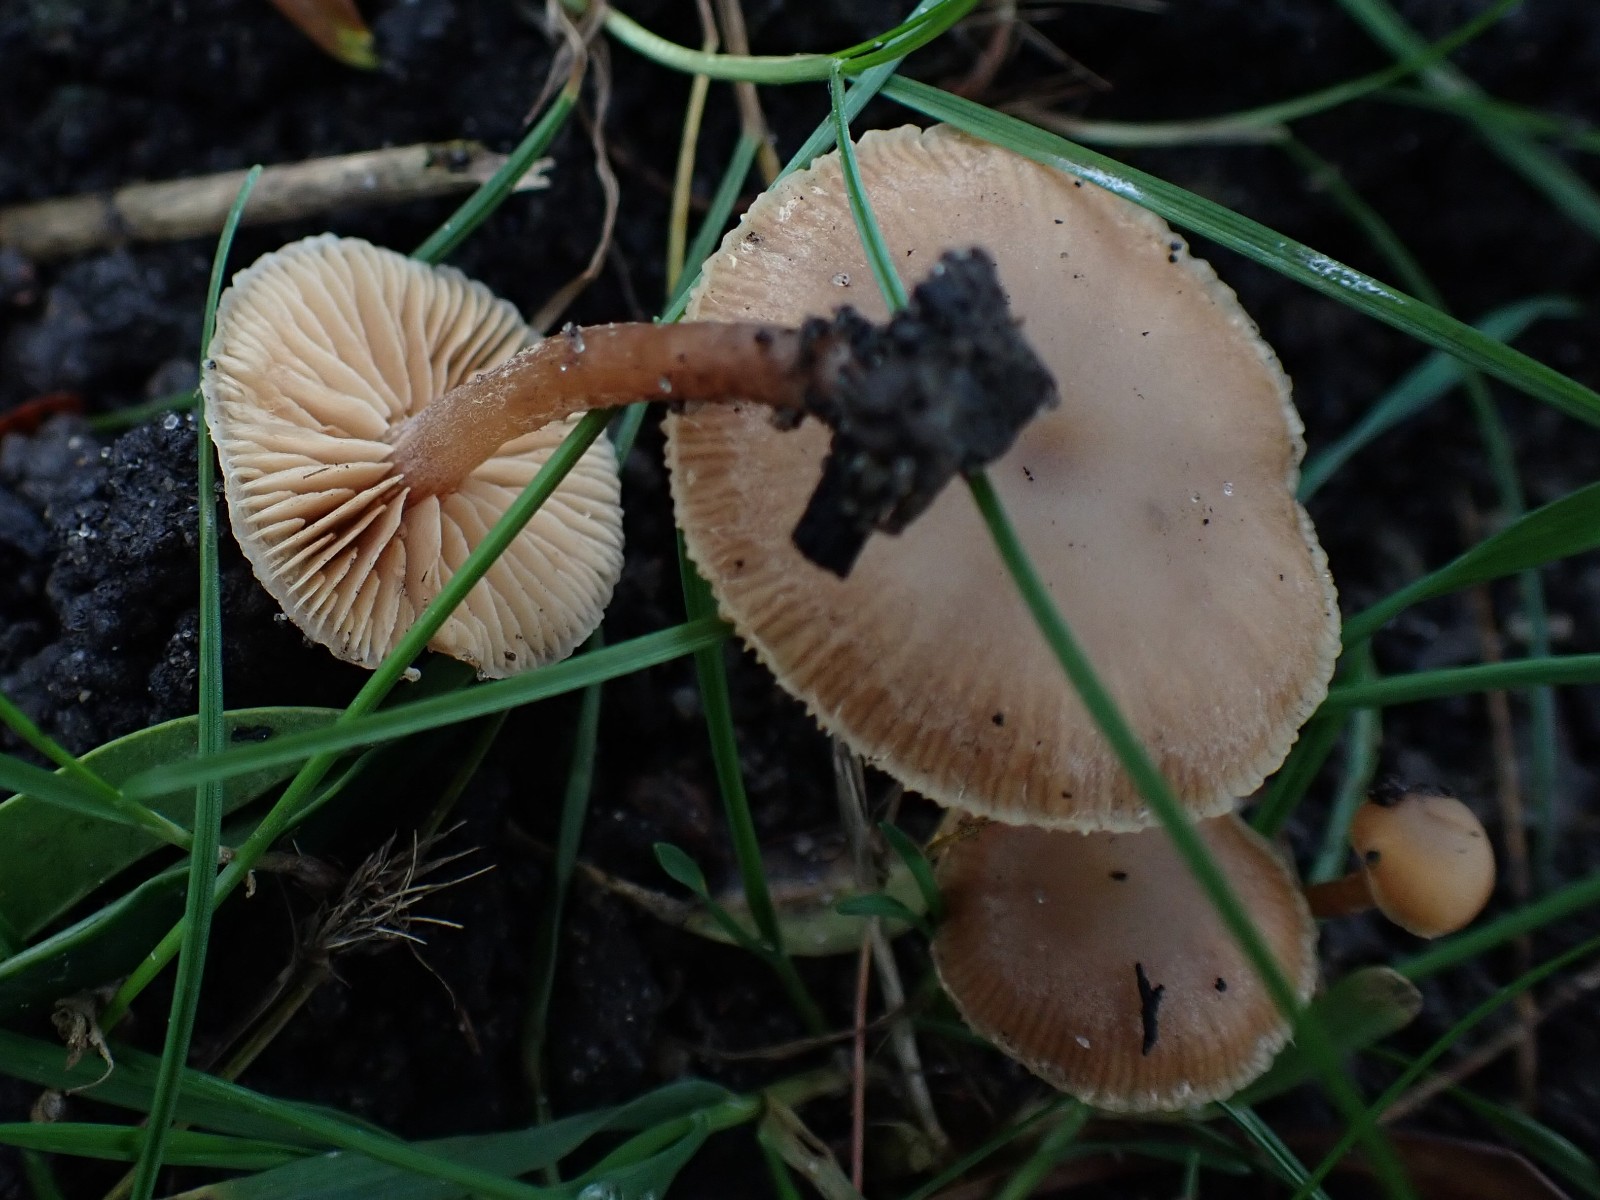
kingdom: Fungi
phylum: Basidiomycota
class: Agaricomycetes
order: Agaricales
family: Tubariaceae
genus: Tubaria
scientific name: Tubaria furfuracea
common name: kliddet fnughat
